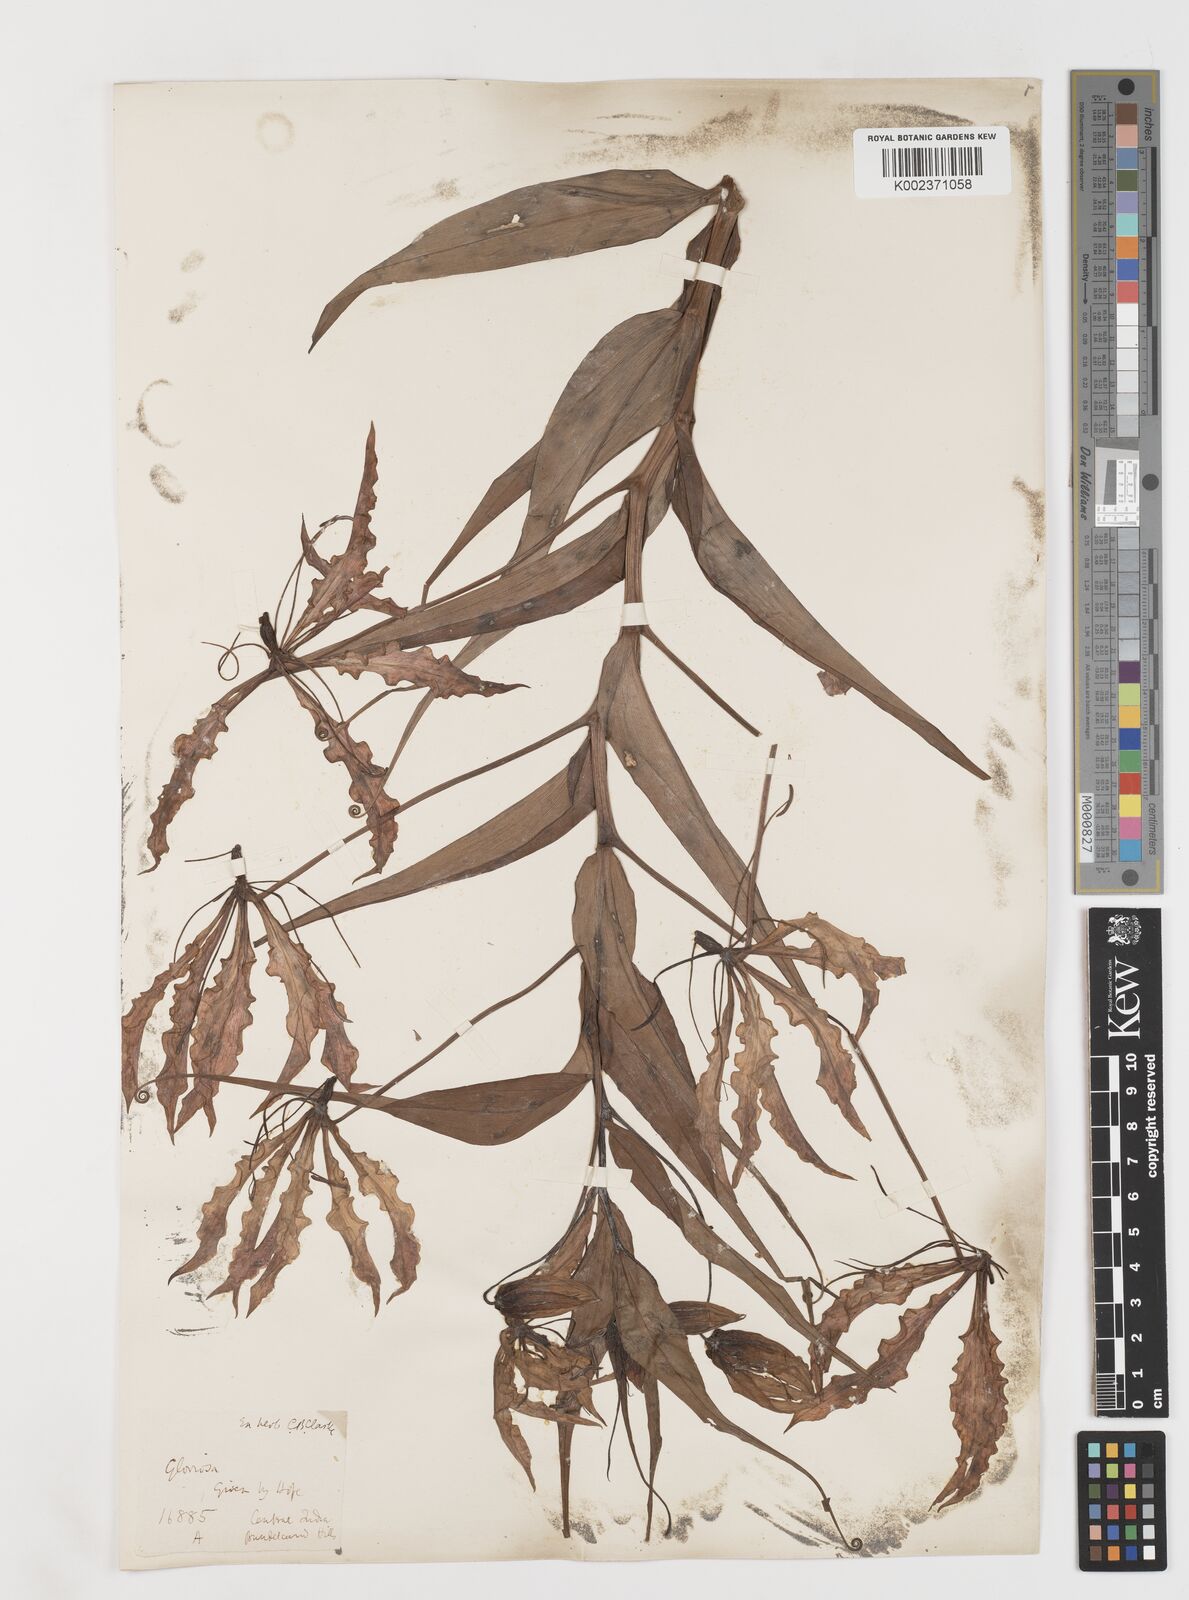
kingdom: Plantae
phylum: Tracheophyta
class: Liliopsida
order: Liliales
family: Colchicaceae
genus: Gloriosa
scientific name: Gloriosa superba
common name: Flame lily
